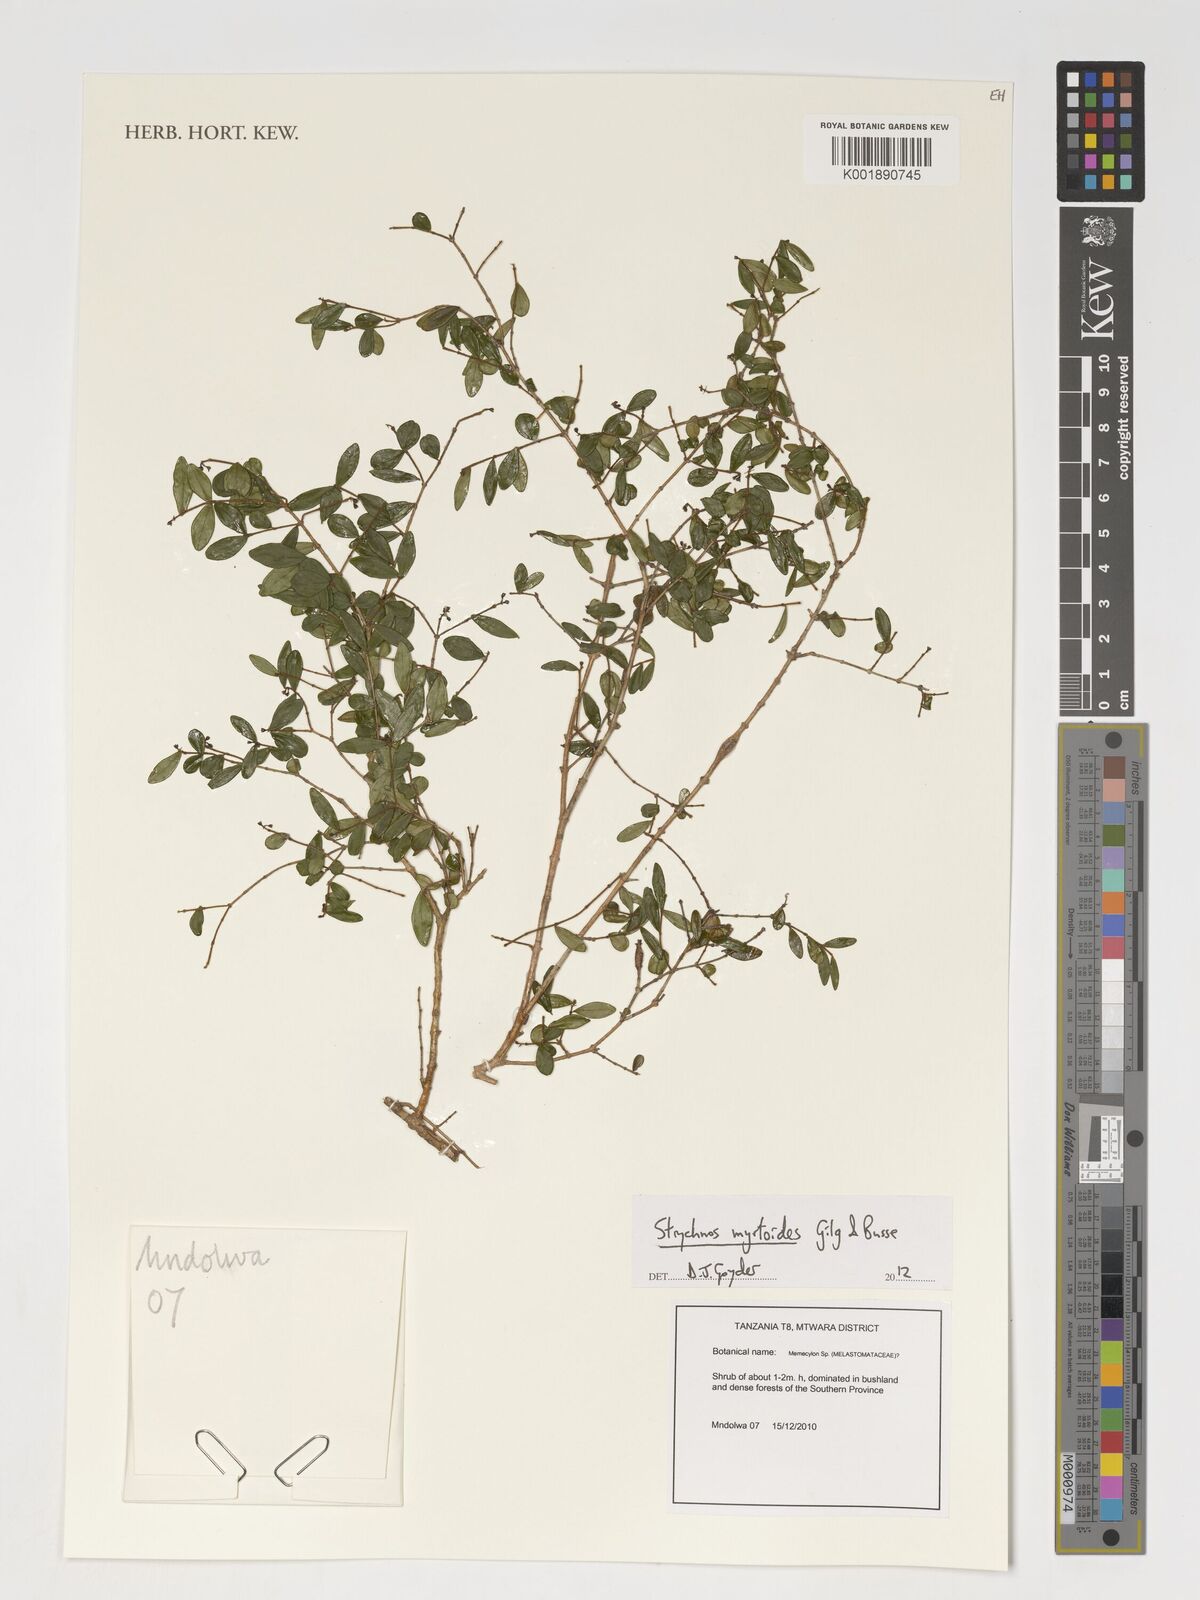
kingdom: Plantae
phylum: Tracheophyta
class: Magnoliopsida
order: Gentianales
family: Loganiaceae
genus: Strychnos
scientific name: Strychnos myrtoides
